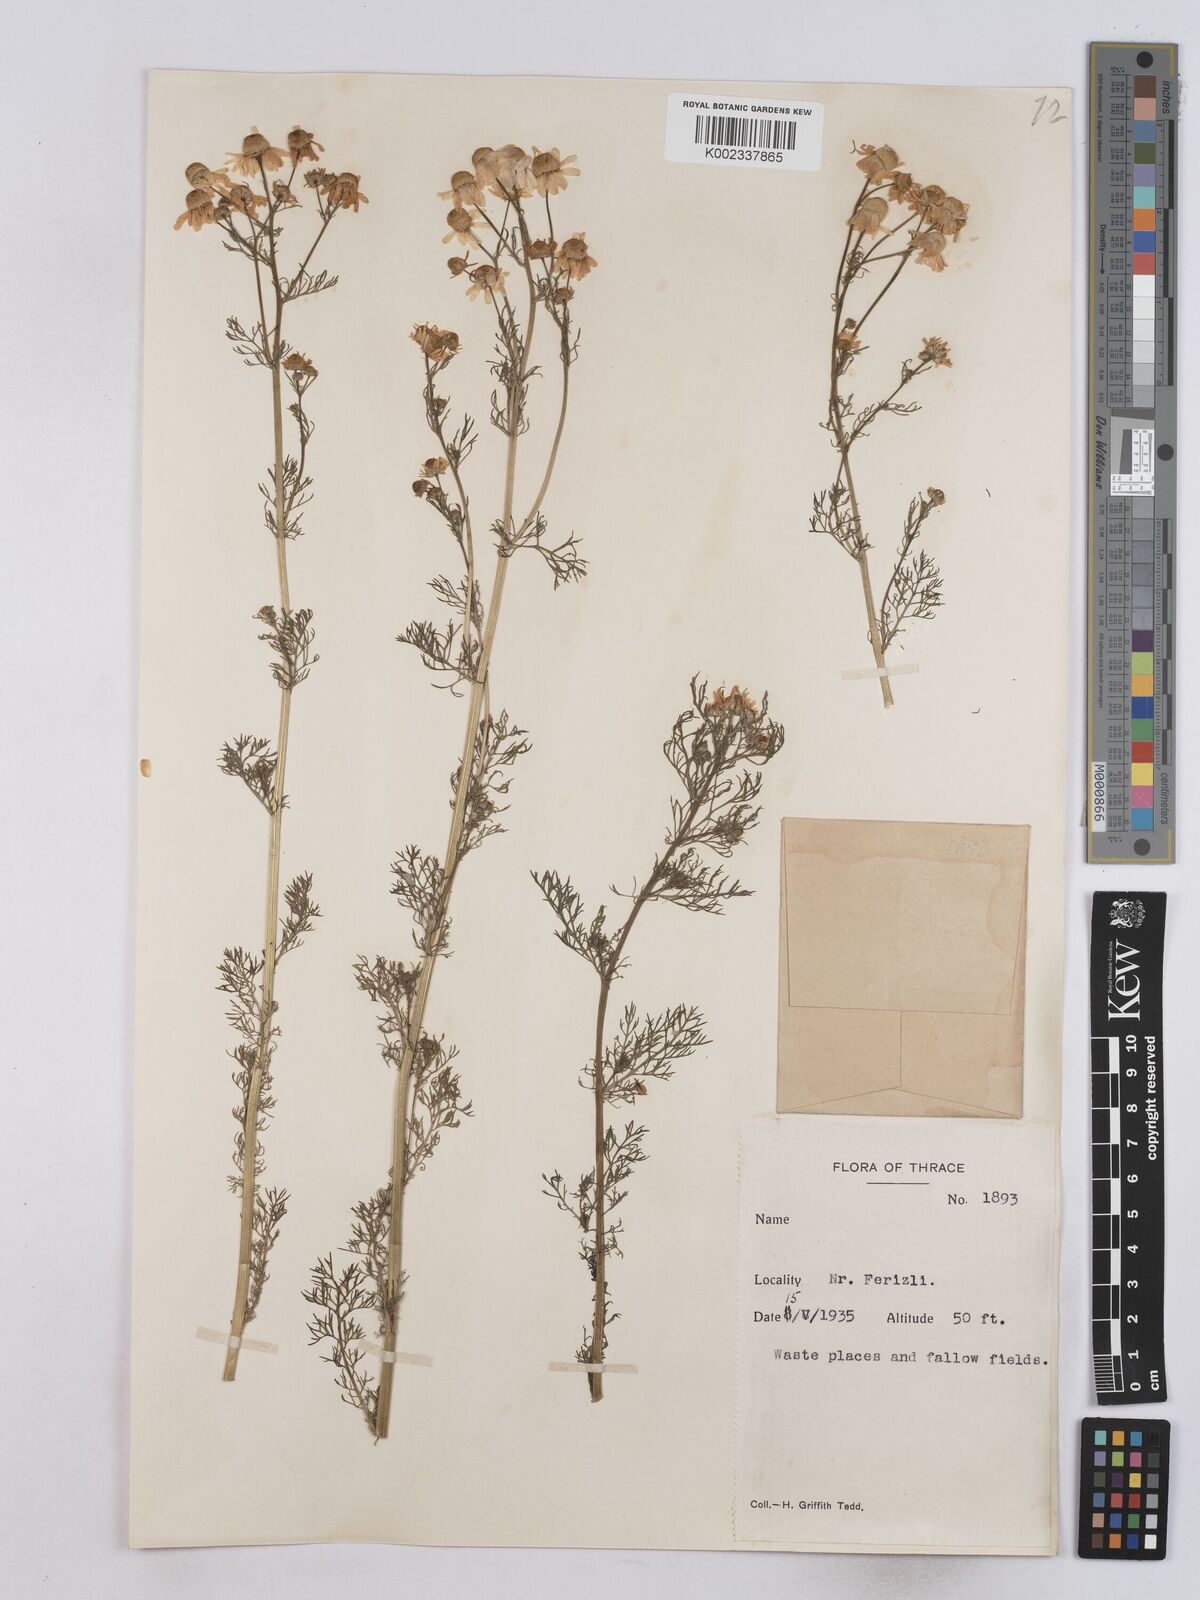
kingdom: Plantae
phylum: Tracheophyta
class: Magnoliopsida
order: Asterales
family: Asteraceae
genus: Matricaria
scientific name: Matricaria chamomilla
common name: Scented mayweed
